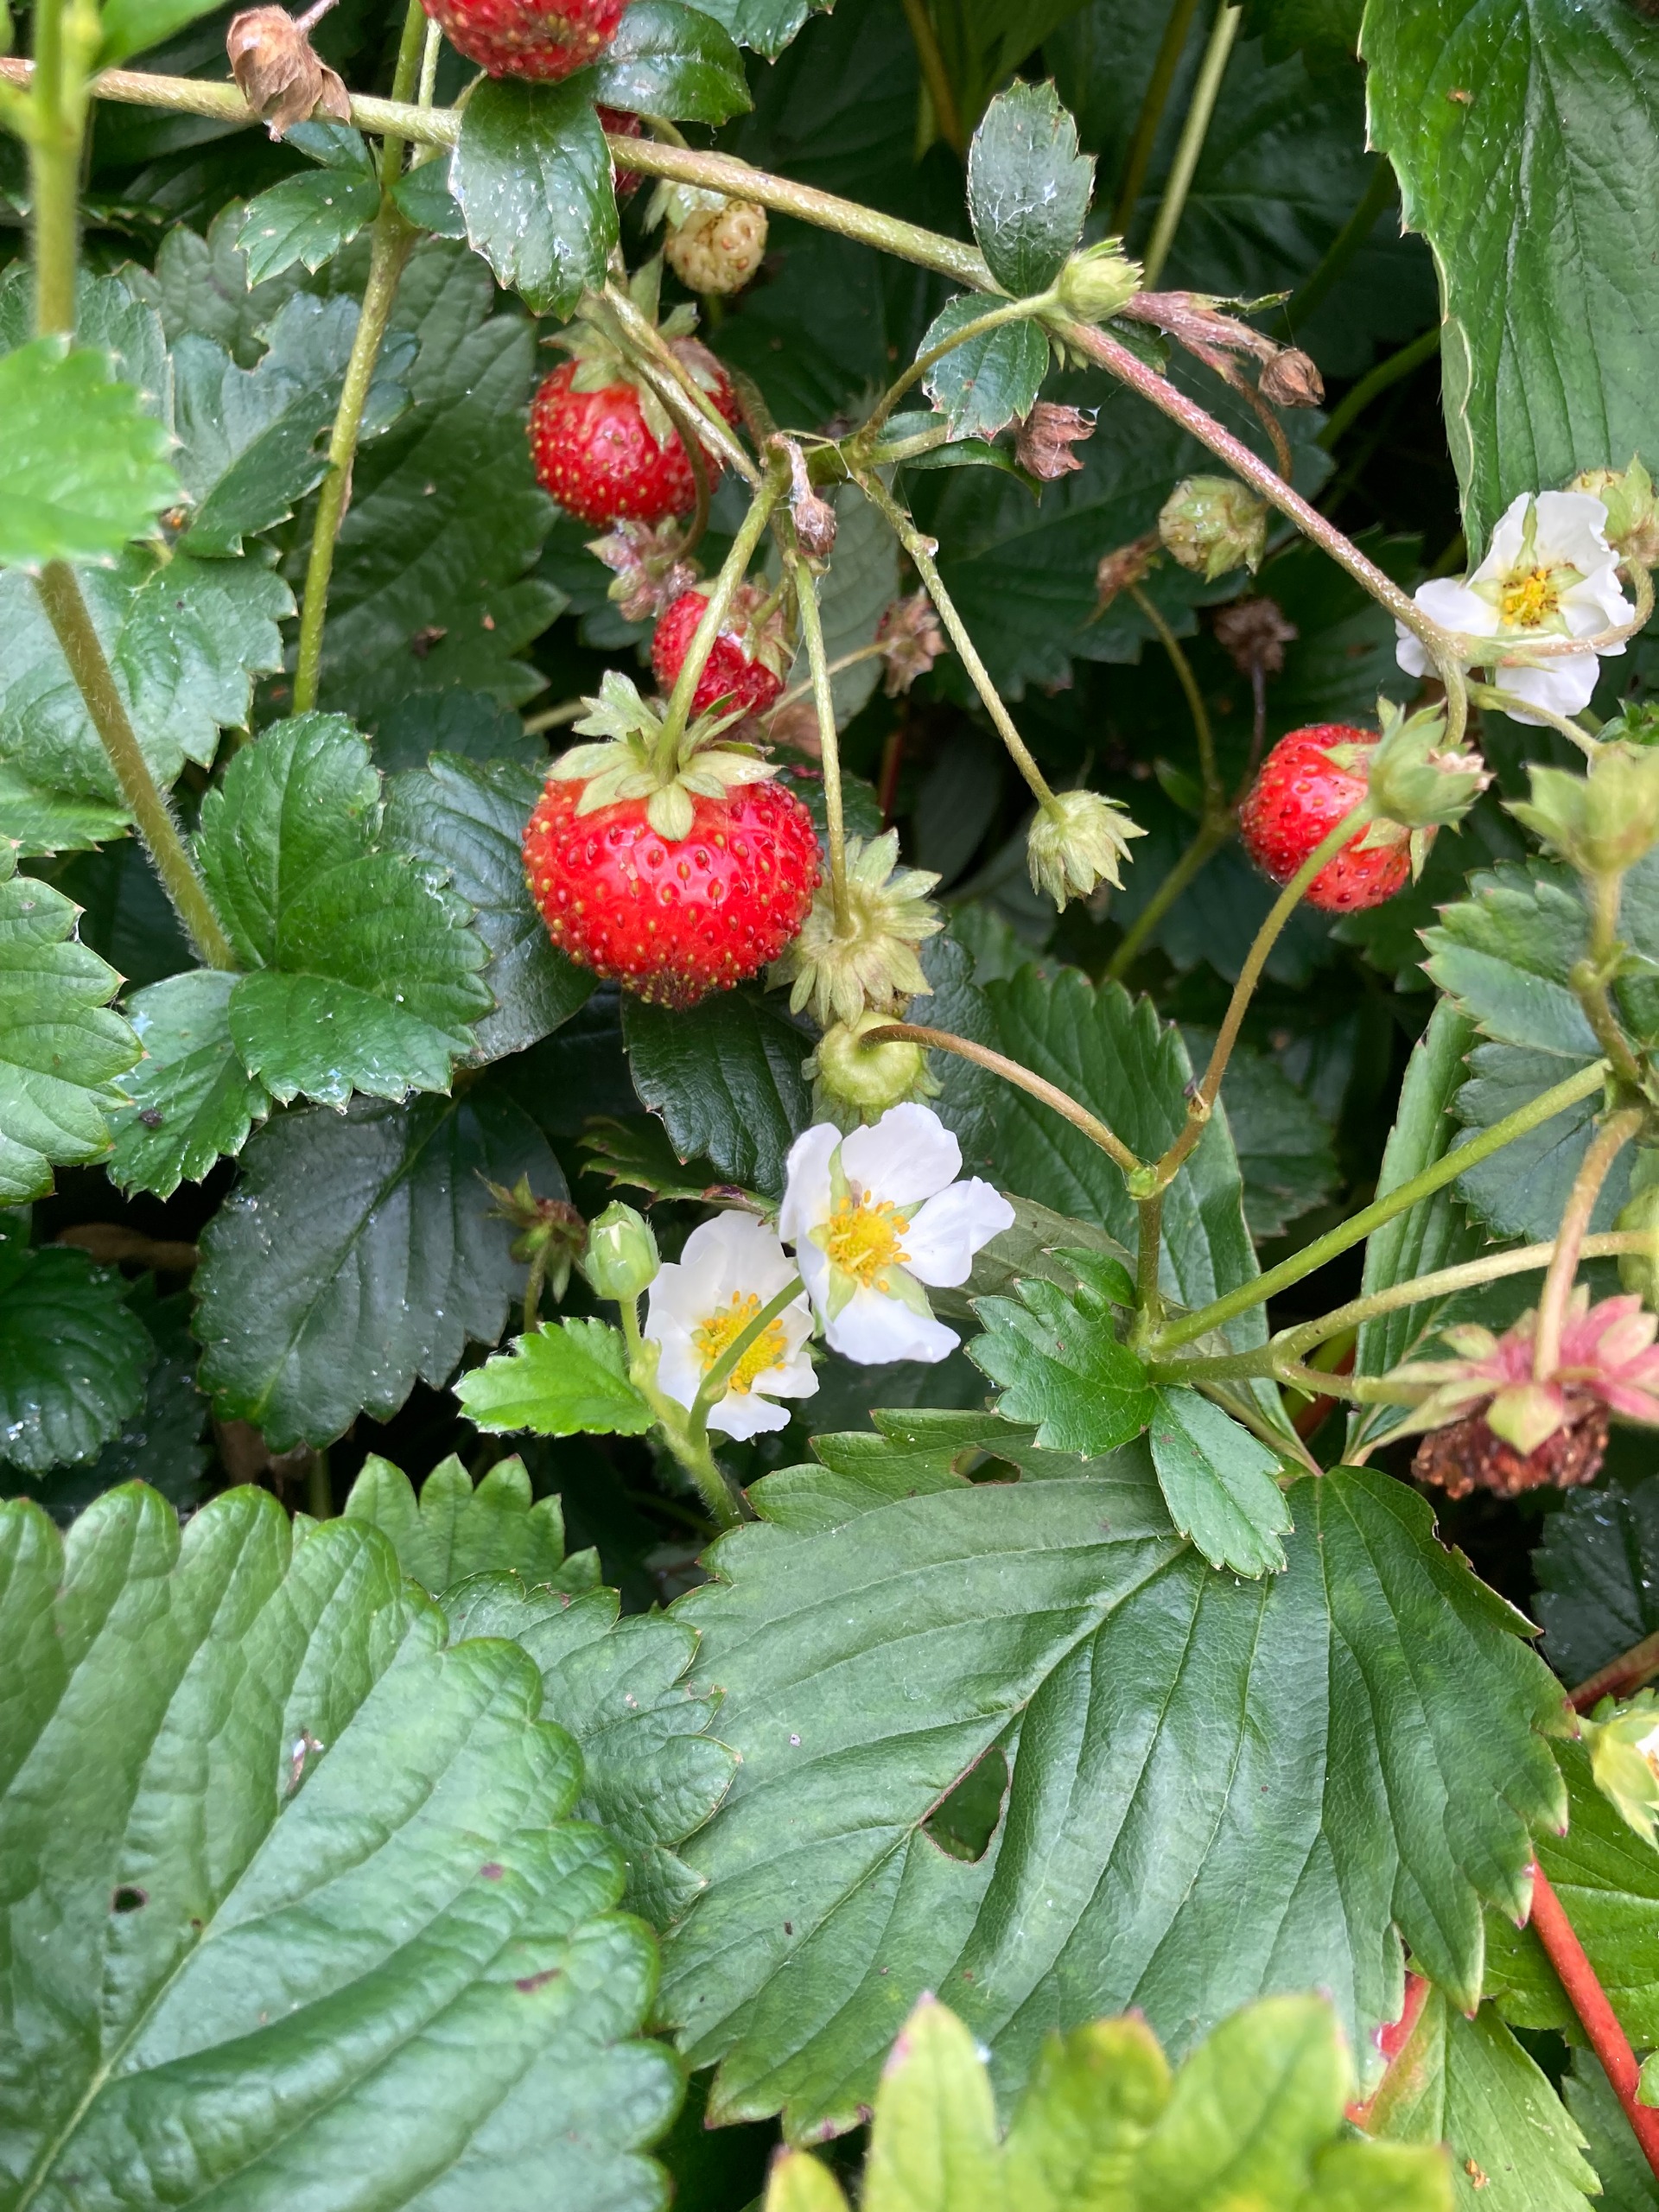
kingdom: Plantae
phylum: Tracheophyta
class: Magnoliopsida
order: Rosales
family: Rosaceae
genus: Fragaria
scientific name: Fragaria ananassa
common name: Have-jordbær
